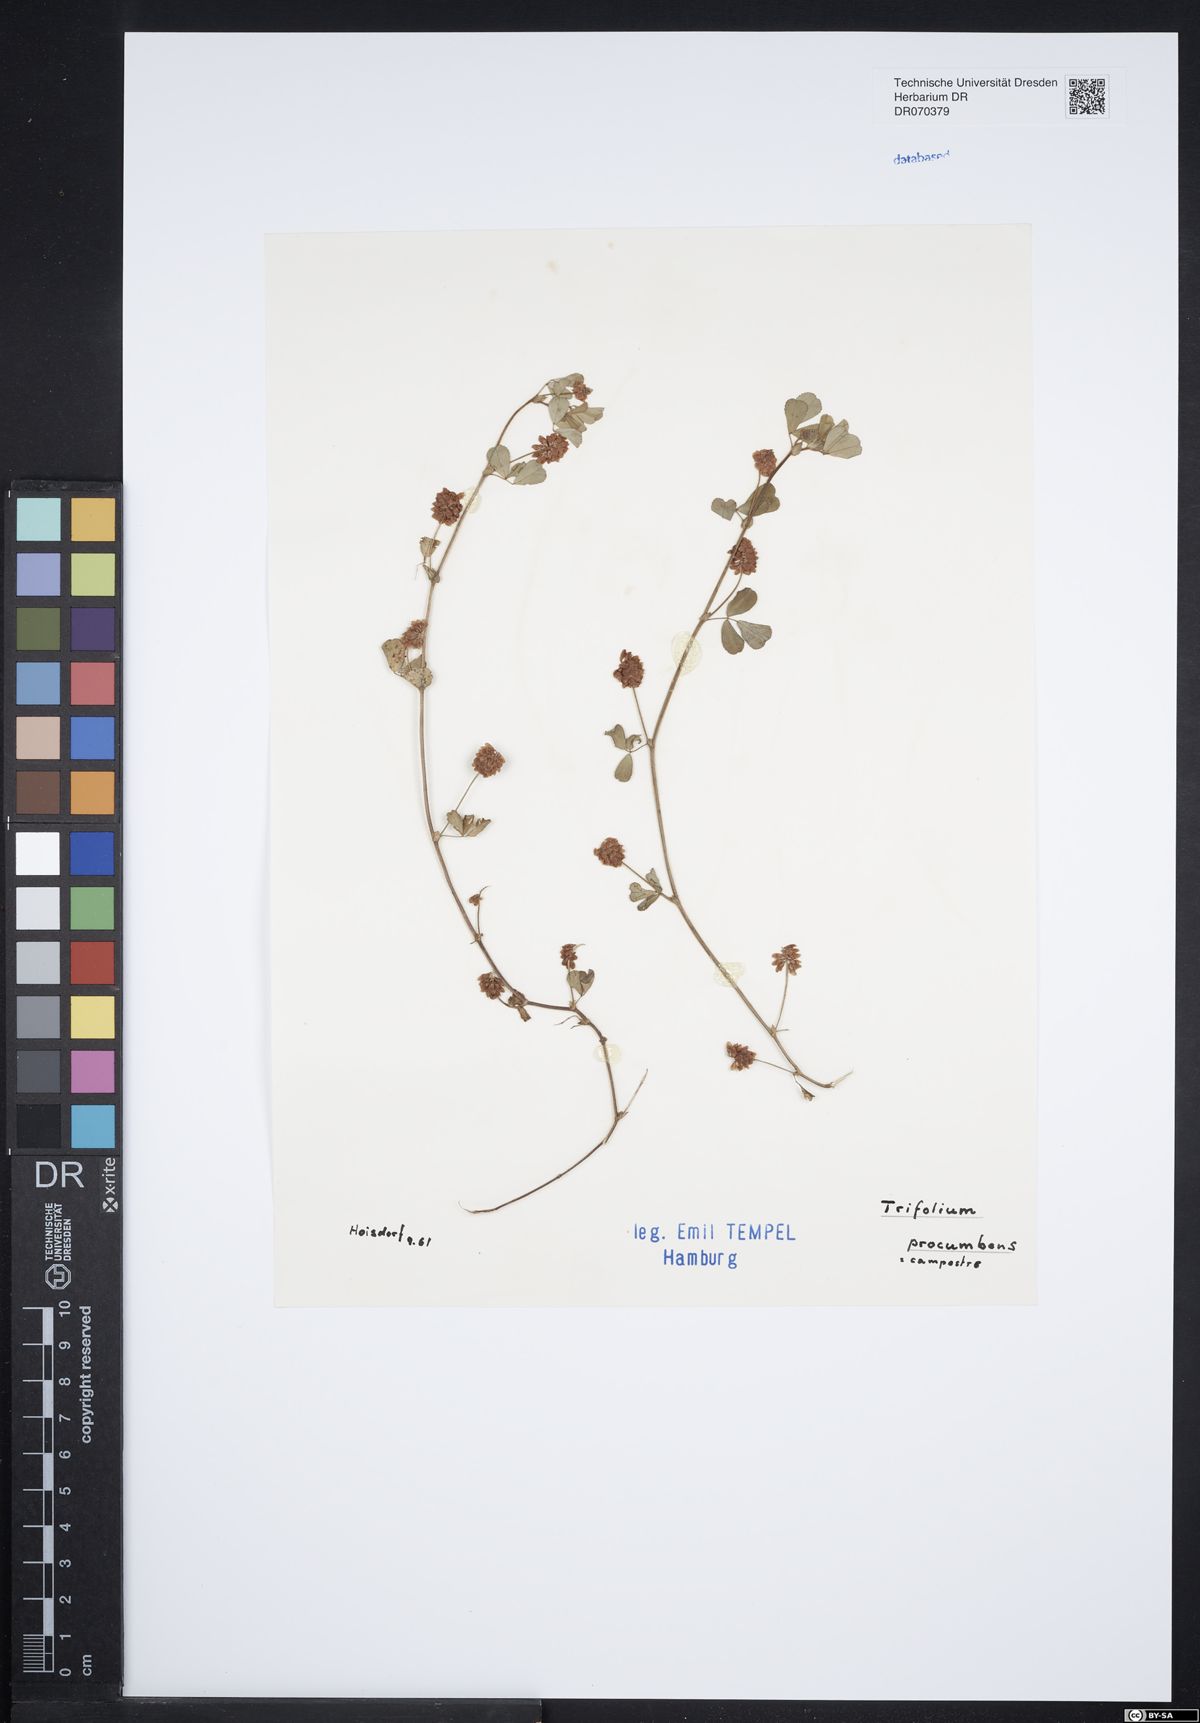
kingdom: Plantae
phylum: Tracheophyta
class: Magnoliopsida
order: Fabales
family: Fabaceae
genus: Trifolium
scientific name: Trifolium campestre
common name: Field clover
